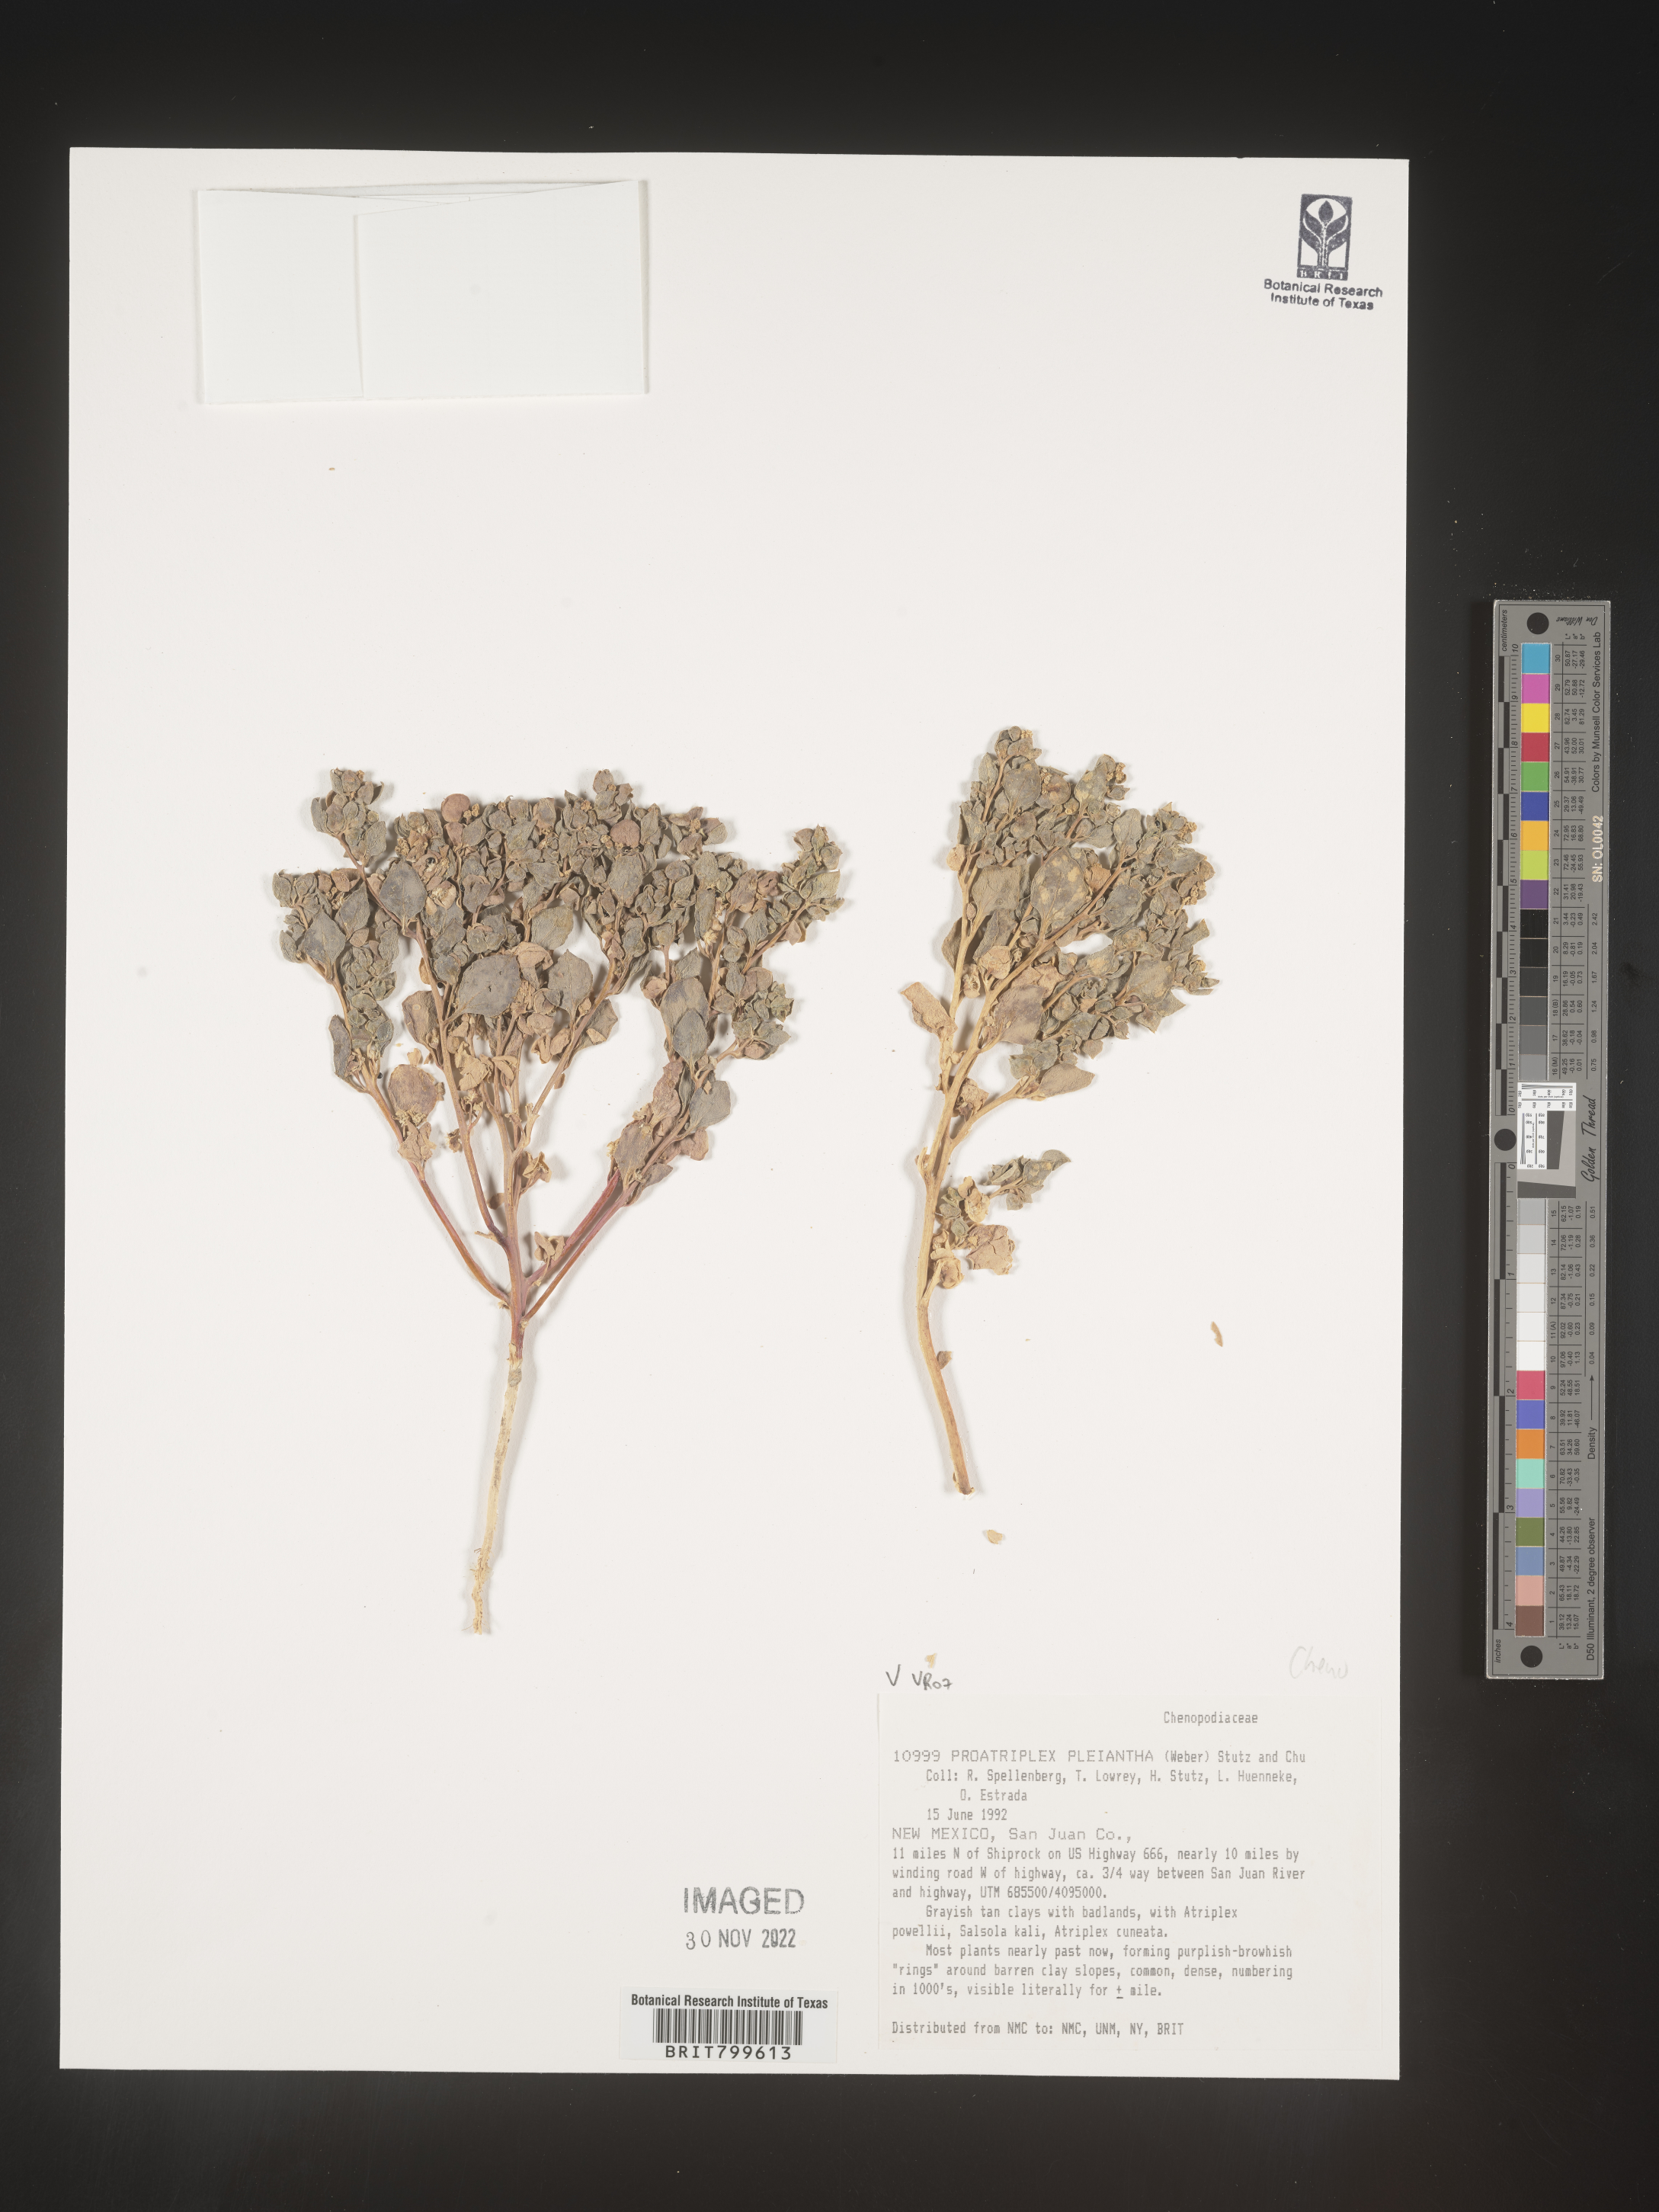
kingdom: Plantae
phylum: Tracheophyta
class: Magnoliopsida
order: Caryophyllales
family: Amaranthaceae
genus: Proatriplex
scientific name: Proatriplex
